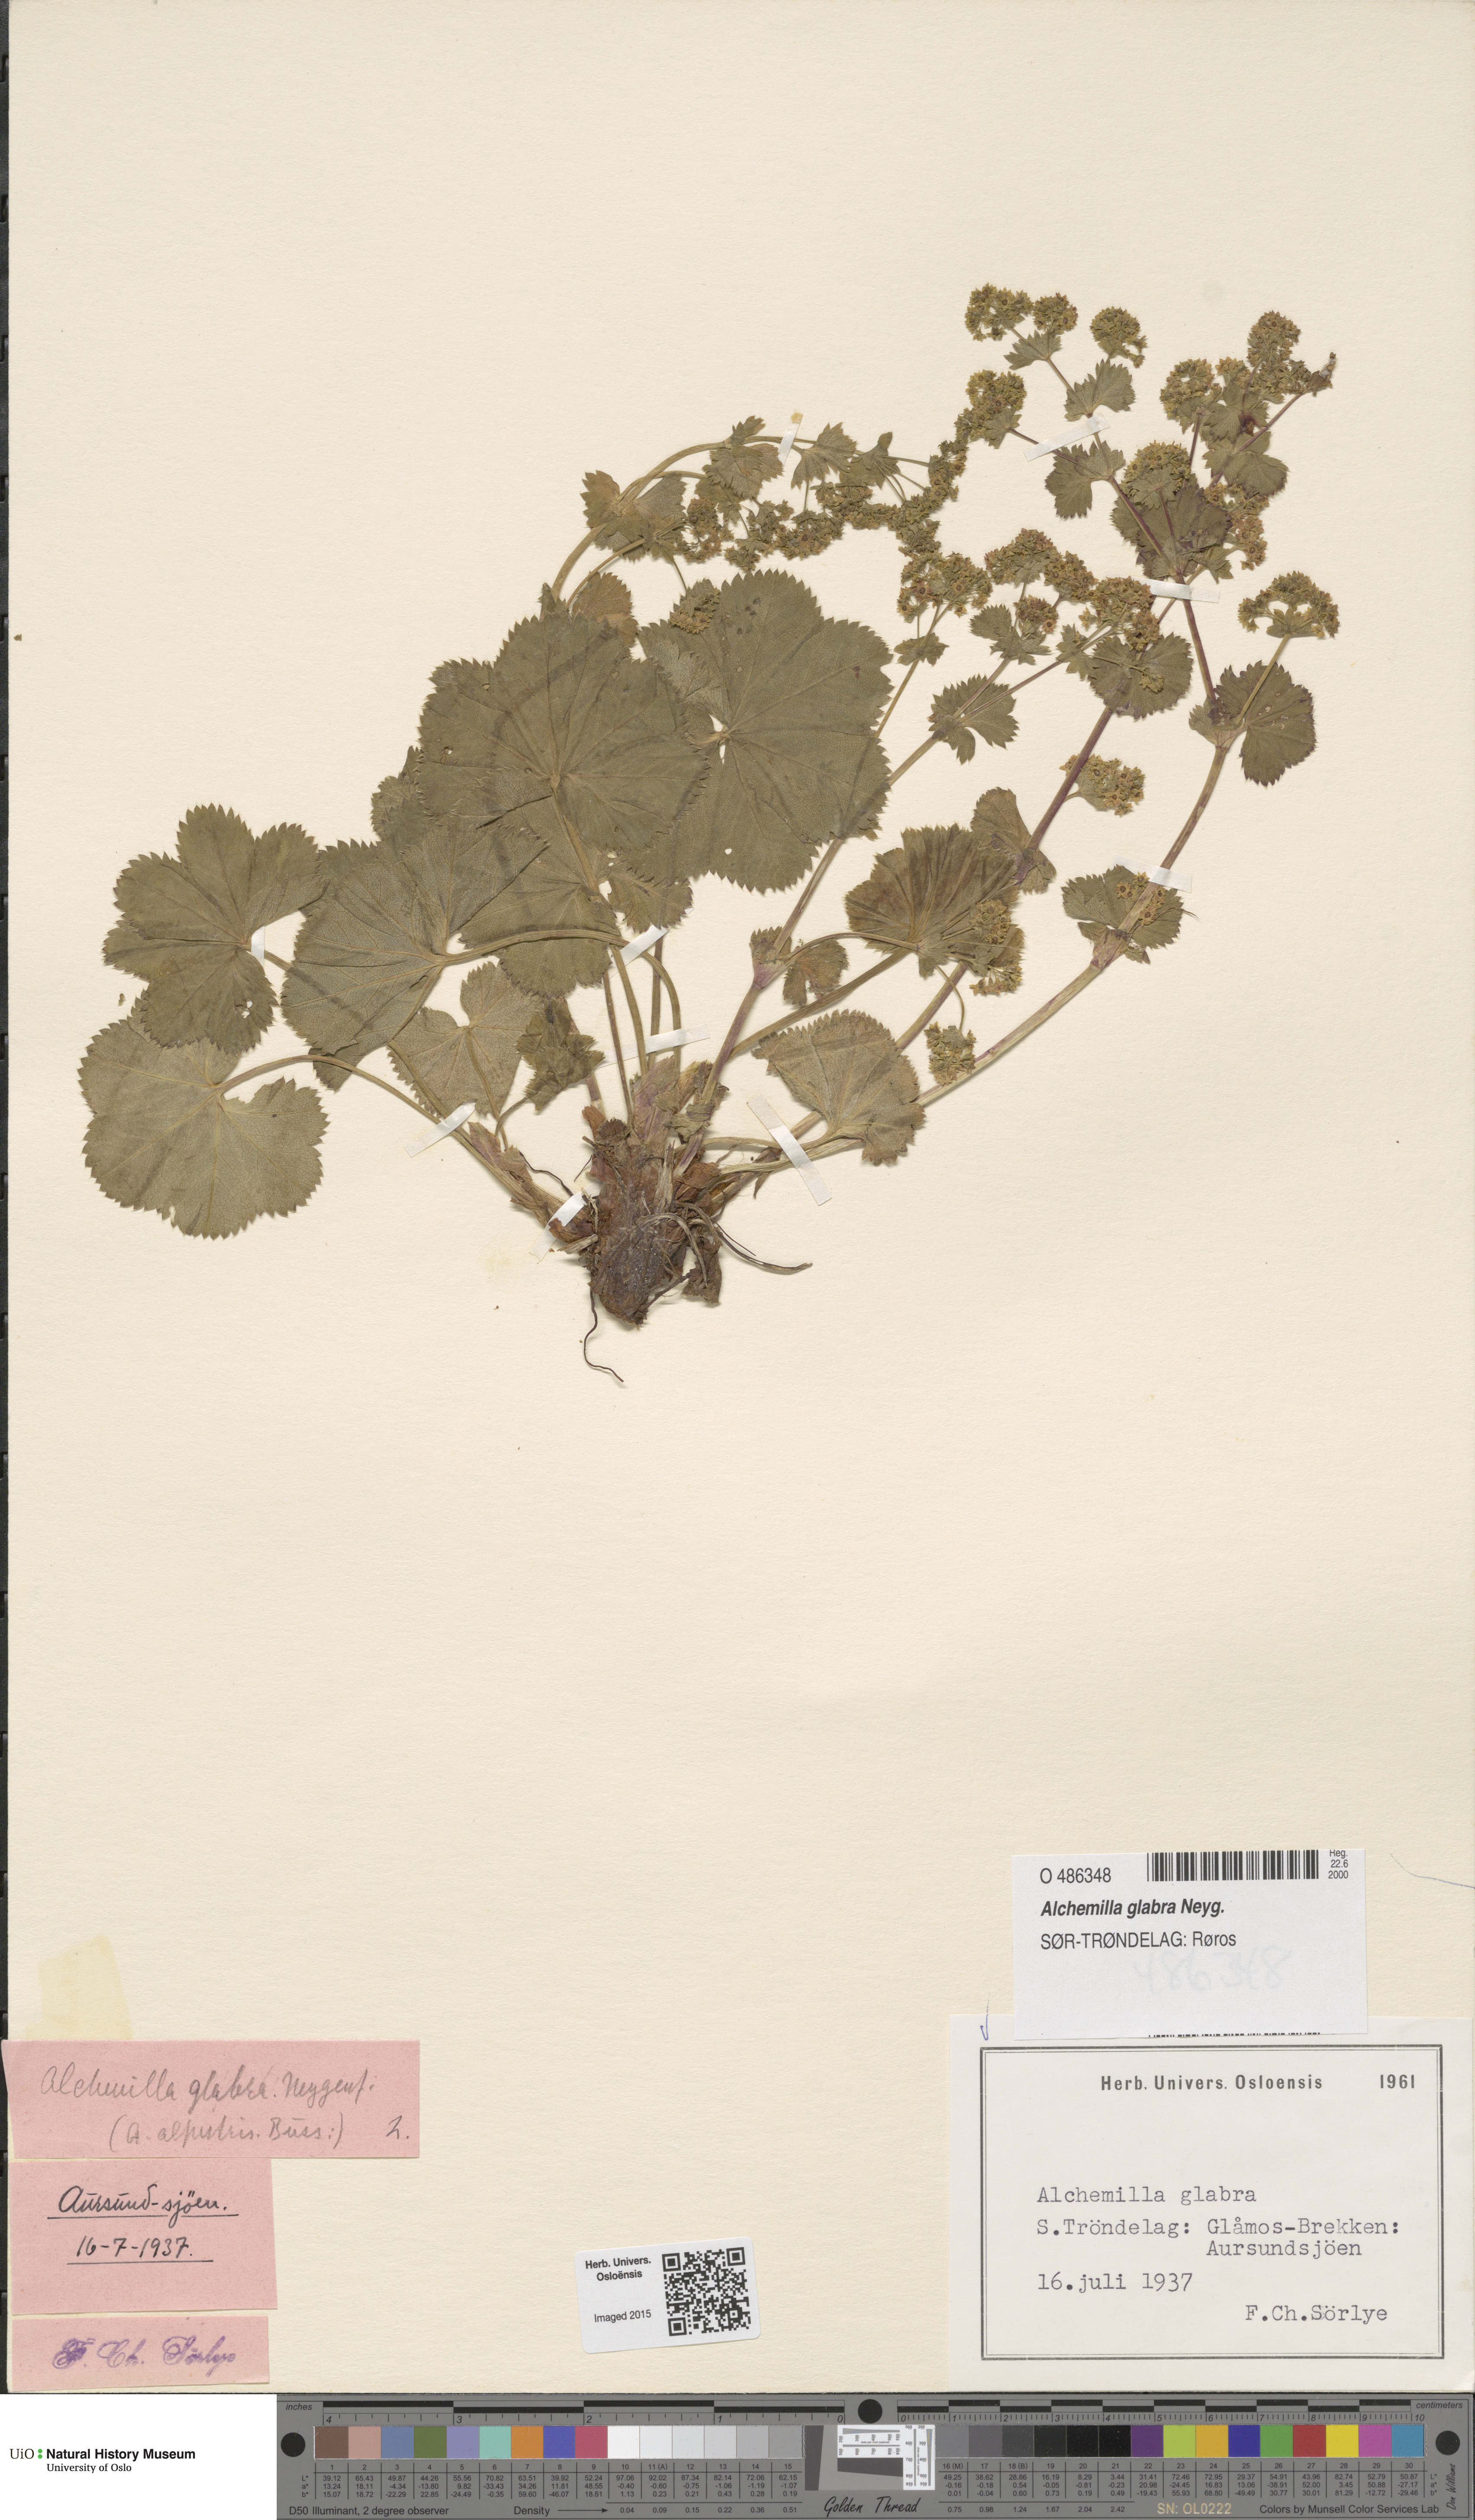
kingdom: Plantae
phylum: Tracheophyta
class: Magnoliopsida
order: Rosales
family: Rosaceae
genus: Alchemilla
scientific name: Alchemilla glabra
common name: Smooth lady's-mantle
